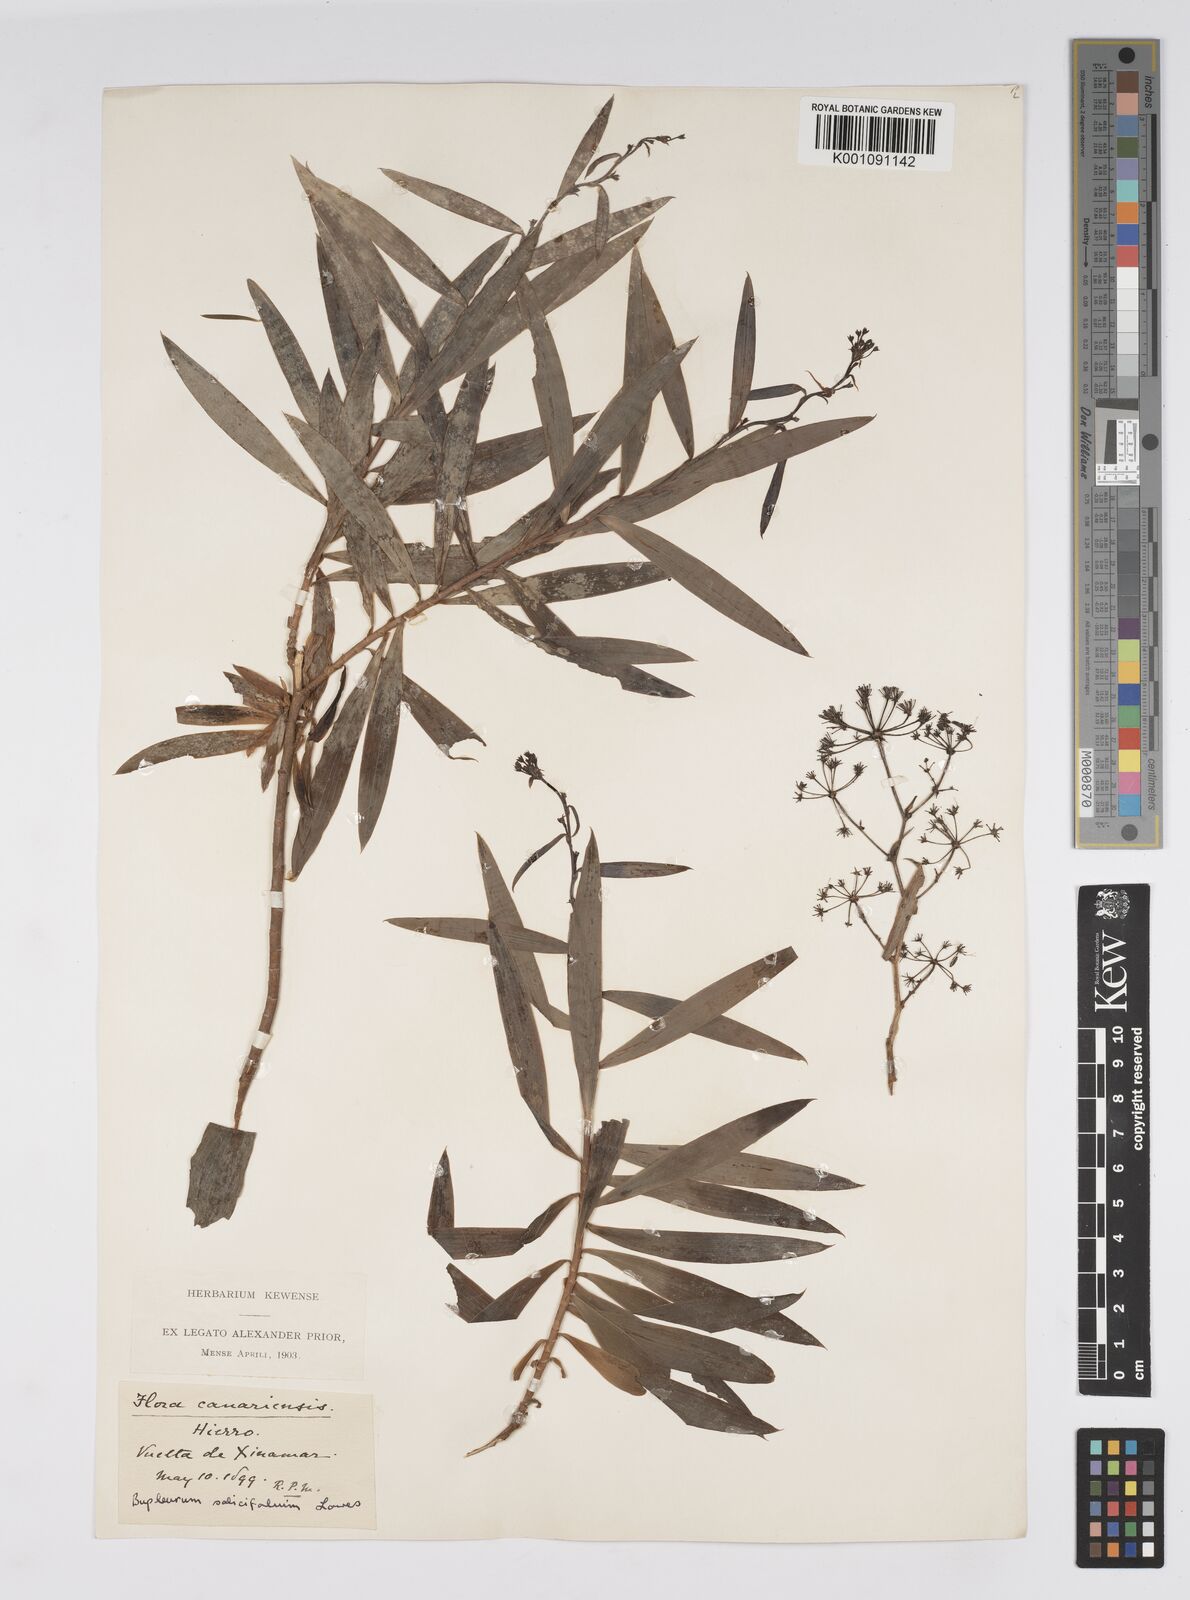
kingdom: Plantae
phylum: Tracheophyta
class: Magnoliopsida
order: Apiales
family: Apiaceae
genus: Bupleurum
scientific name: Bupleurum salicifolium
